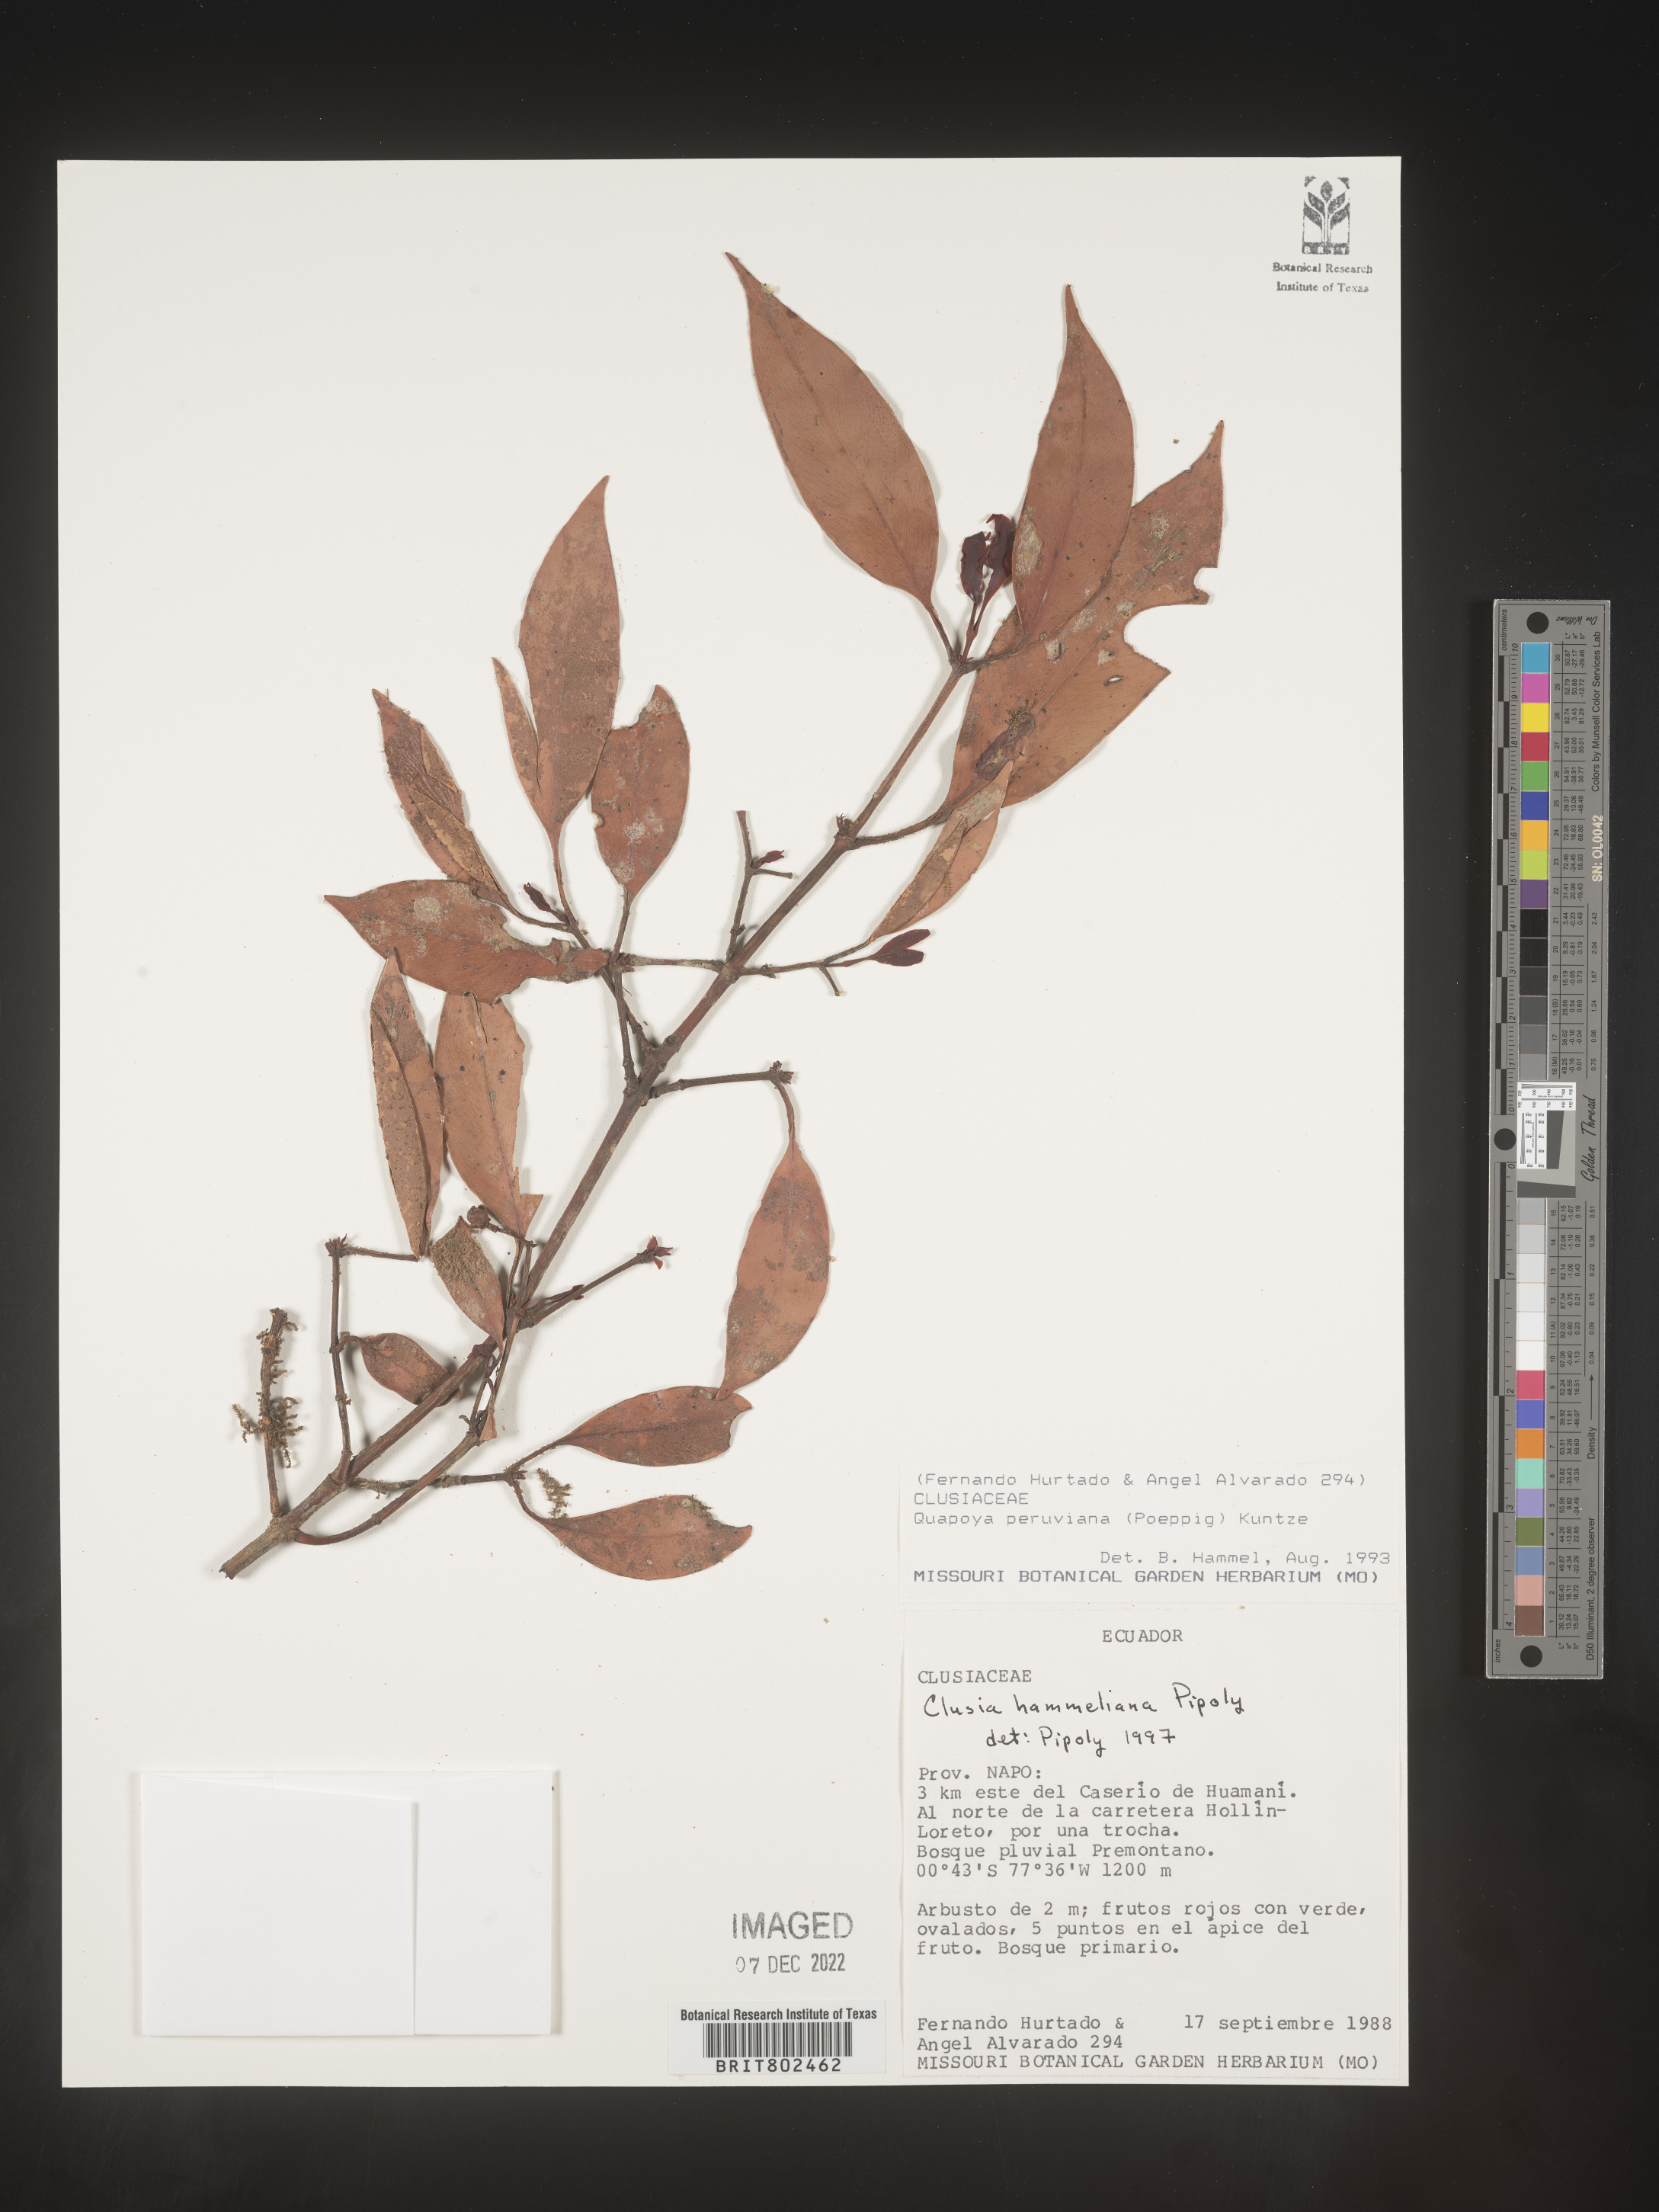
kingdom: Plantae
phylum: Tracheophyta
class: Magnoliopsida
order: Malpighiales
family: Clusiaceae
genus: Clusia
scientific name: Clusia hammeliana
